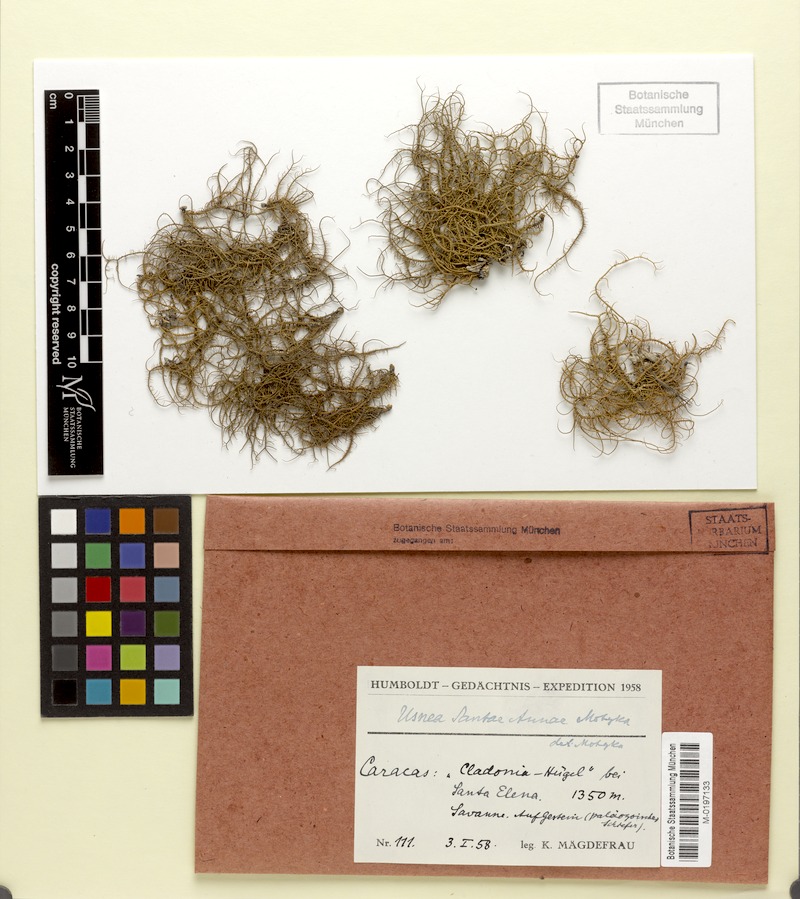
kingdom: Fungi
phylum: Ascomycota
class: Lecanoromycetes
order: Lecanorales
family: Parmeliaceae
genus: Usnea
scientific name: Usnea
